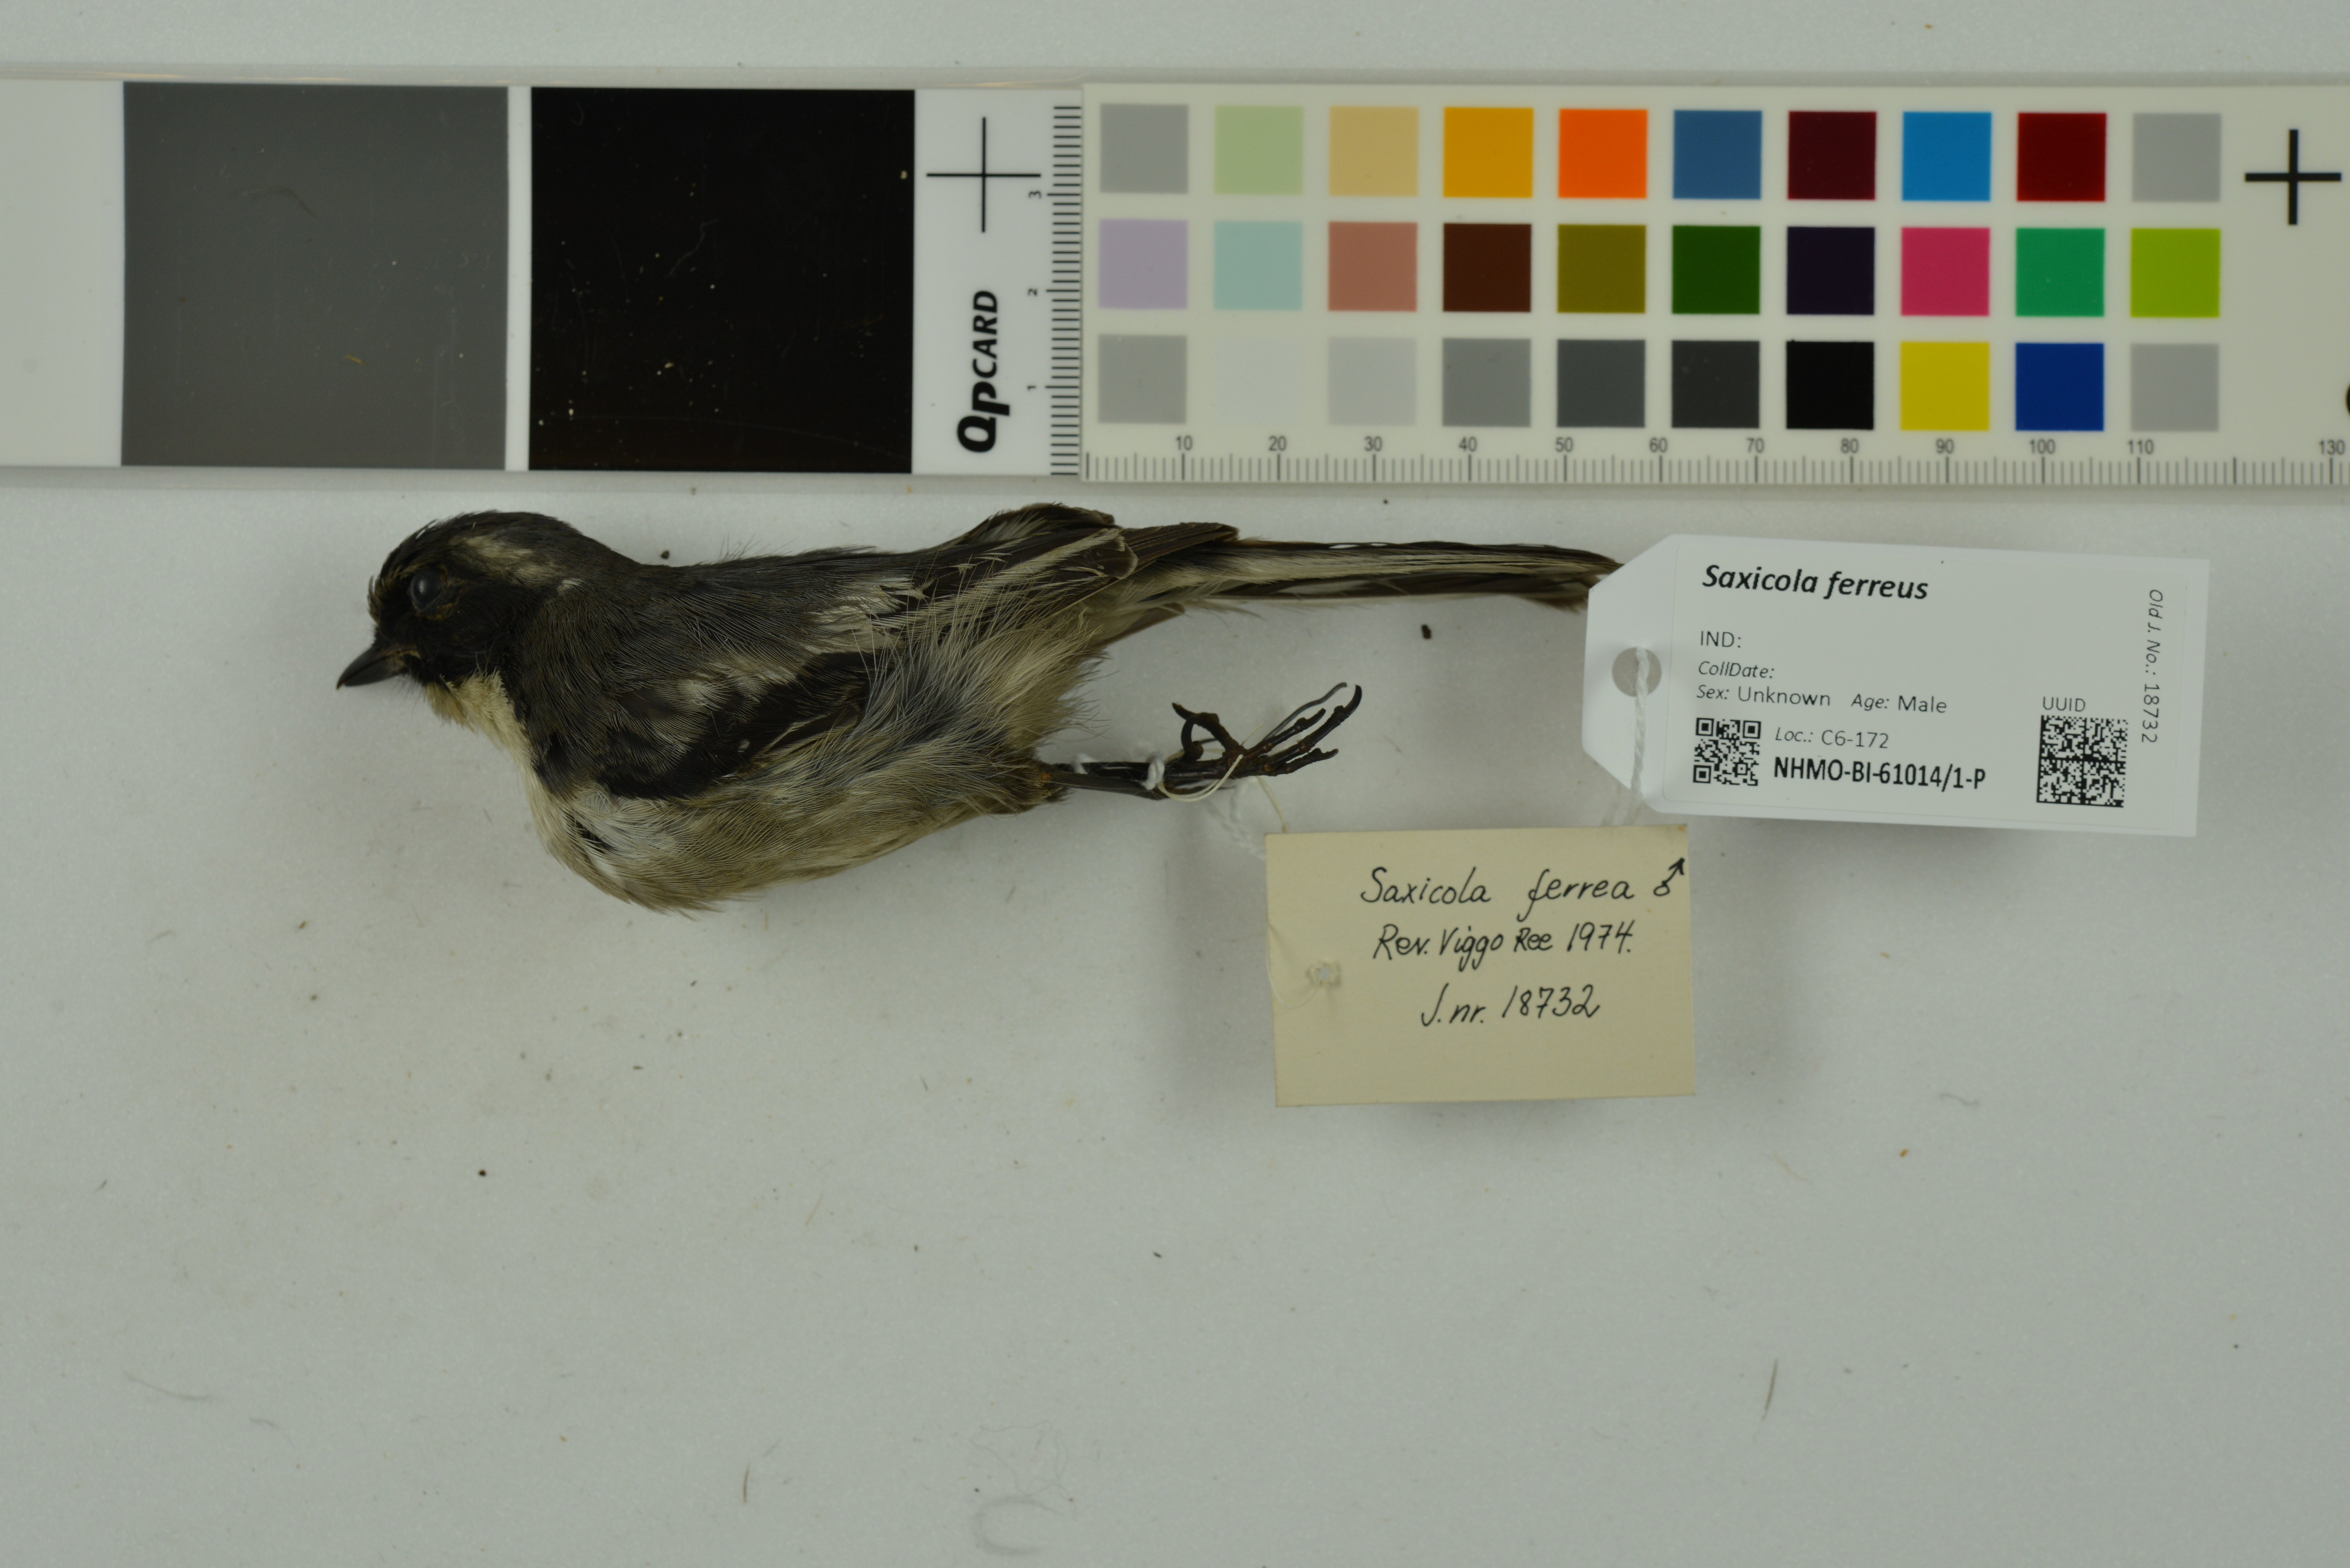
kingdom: Animalia
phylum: Chordata
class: Aves
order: Passeriformes
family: Muscicapidae
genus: Saxicola
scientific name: Saxicola ferreus
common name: Grey bush chat
